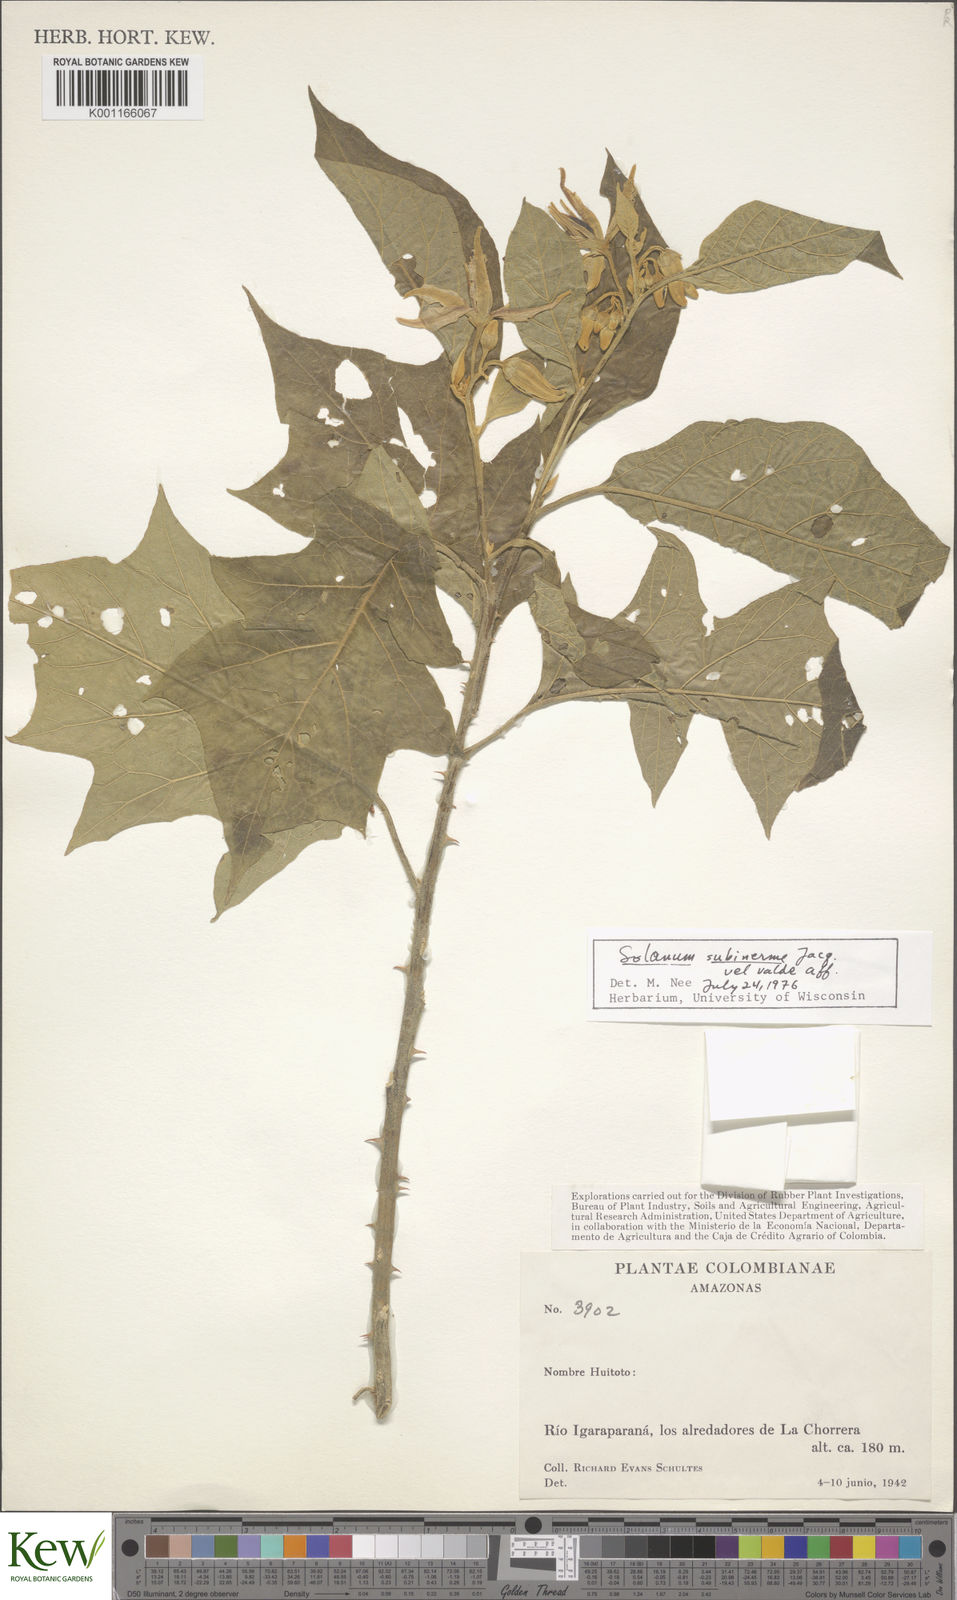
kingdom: Plantae
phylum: Tracheophyta
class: Magnoliopsida
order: Solanales
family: Solanaceae
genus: Solanum
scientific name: Solanum subinerme
